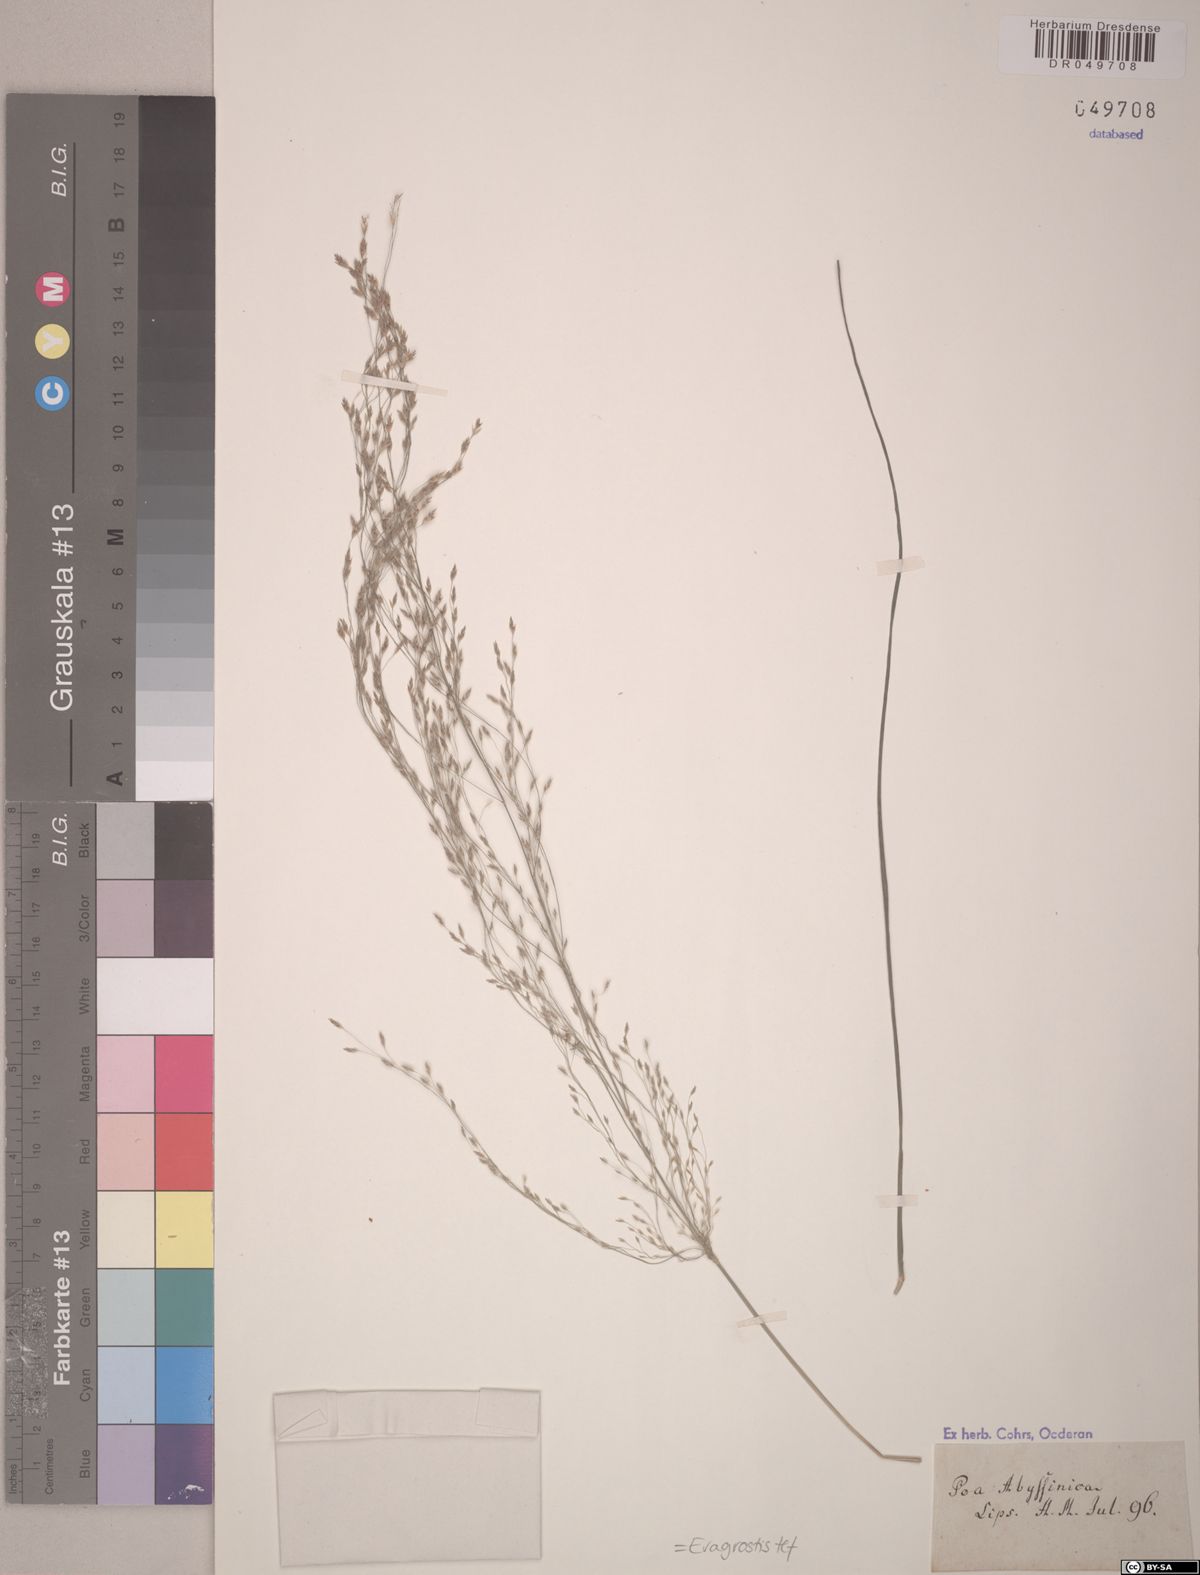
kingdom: Plantae
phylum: Tracheophyta
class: Liliopsida
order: Poales
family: Poaceae
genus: Eragrostis
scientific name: Eragrostis tef
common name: Teff
